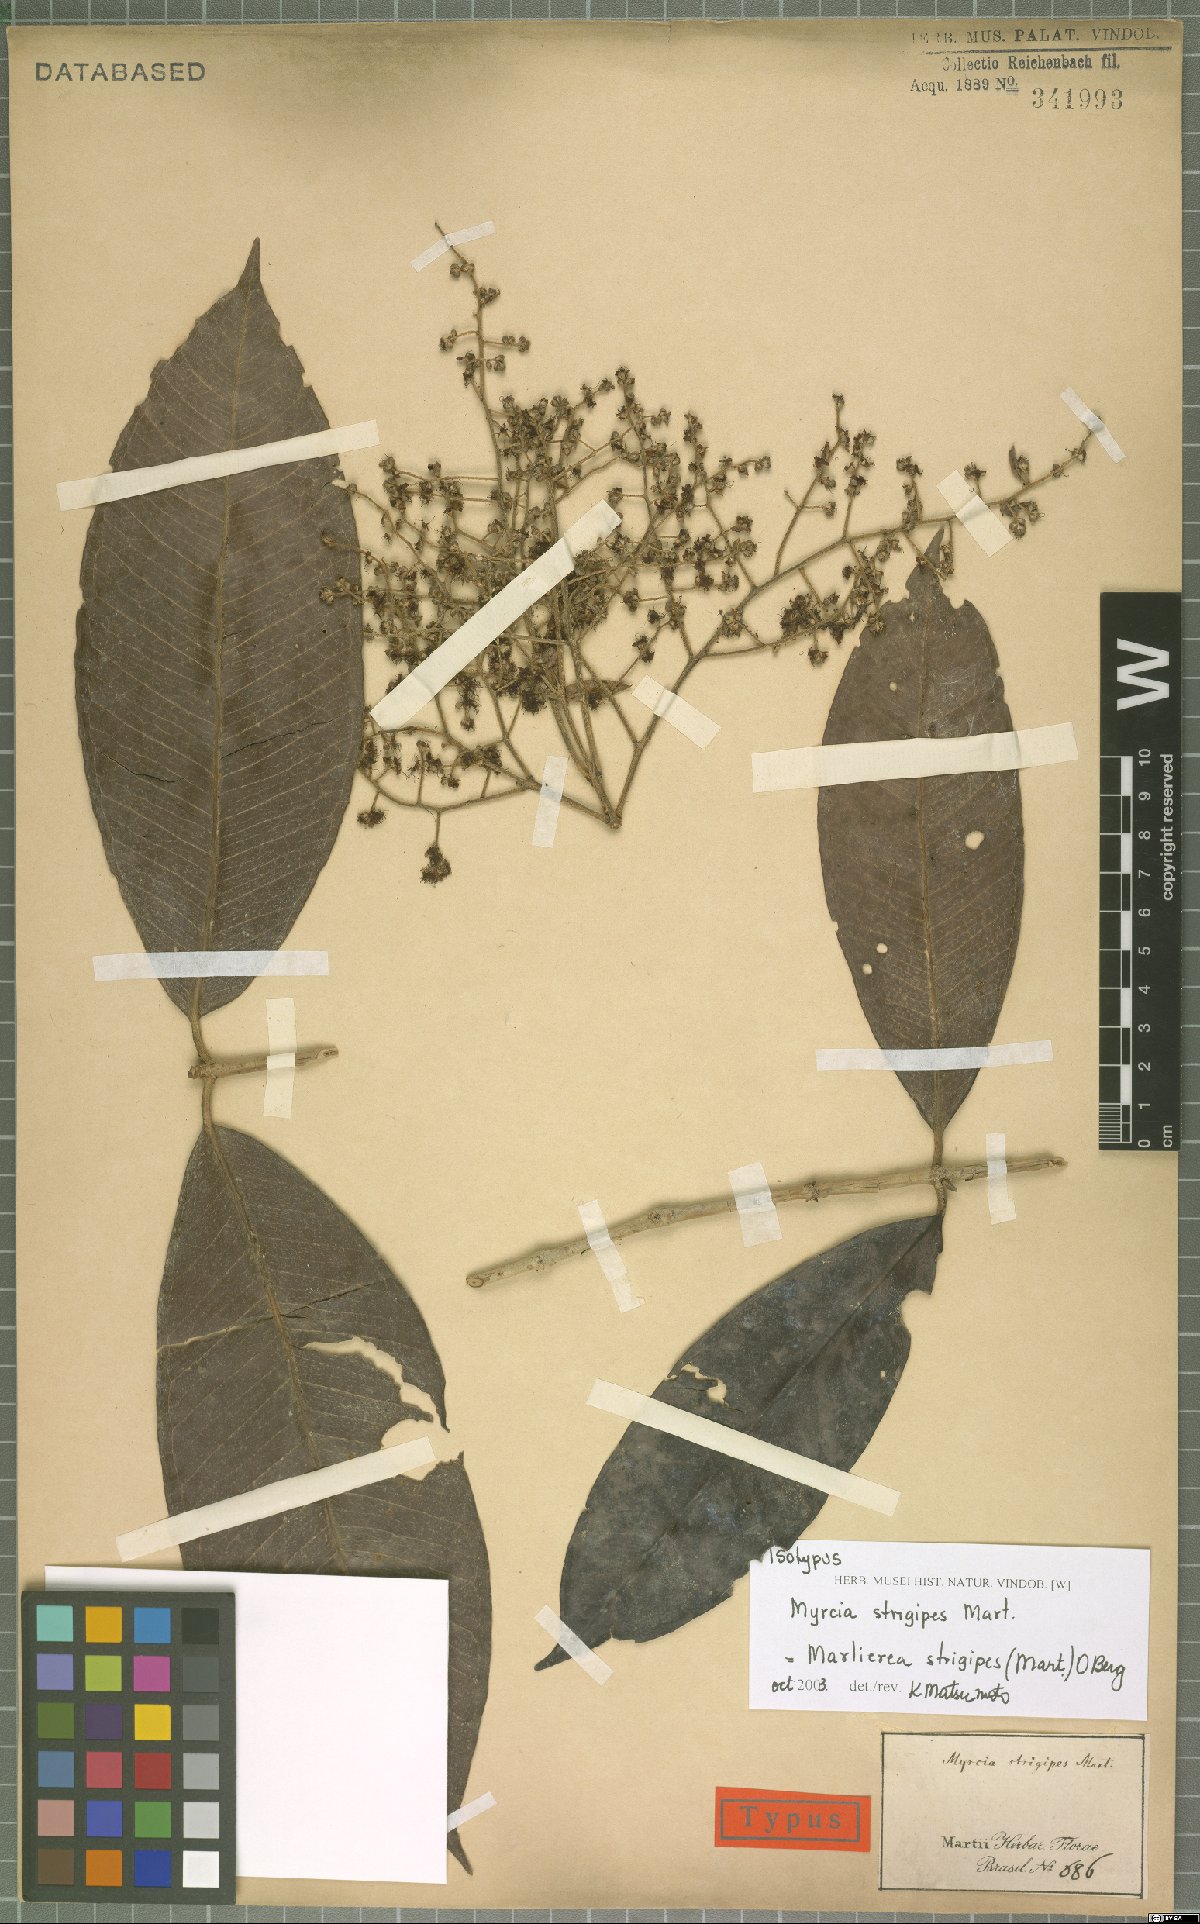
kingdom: Plantae
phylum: Tracheophyta
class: Magnoliopsida
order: Myrtales
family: Myrtaceae
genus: Myrcia
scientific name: Myrcia strigipes
